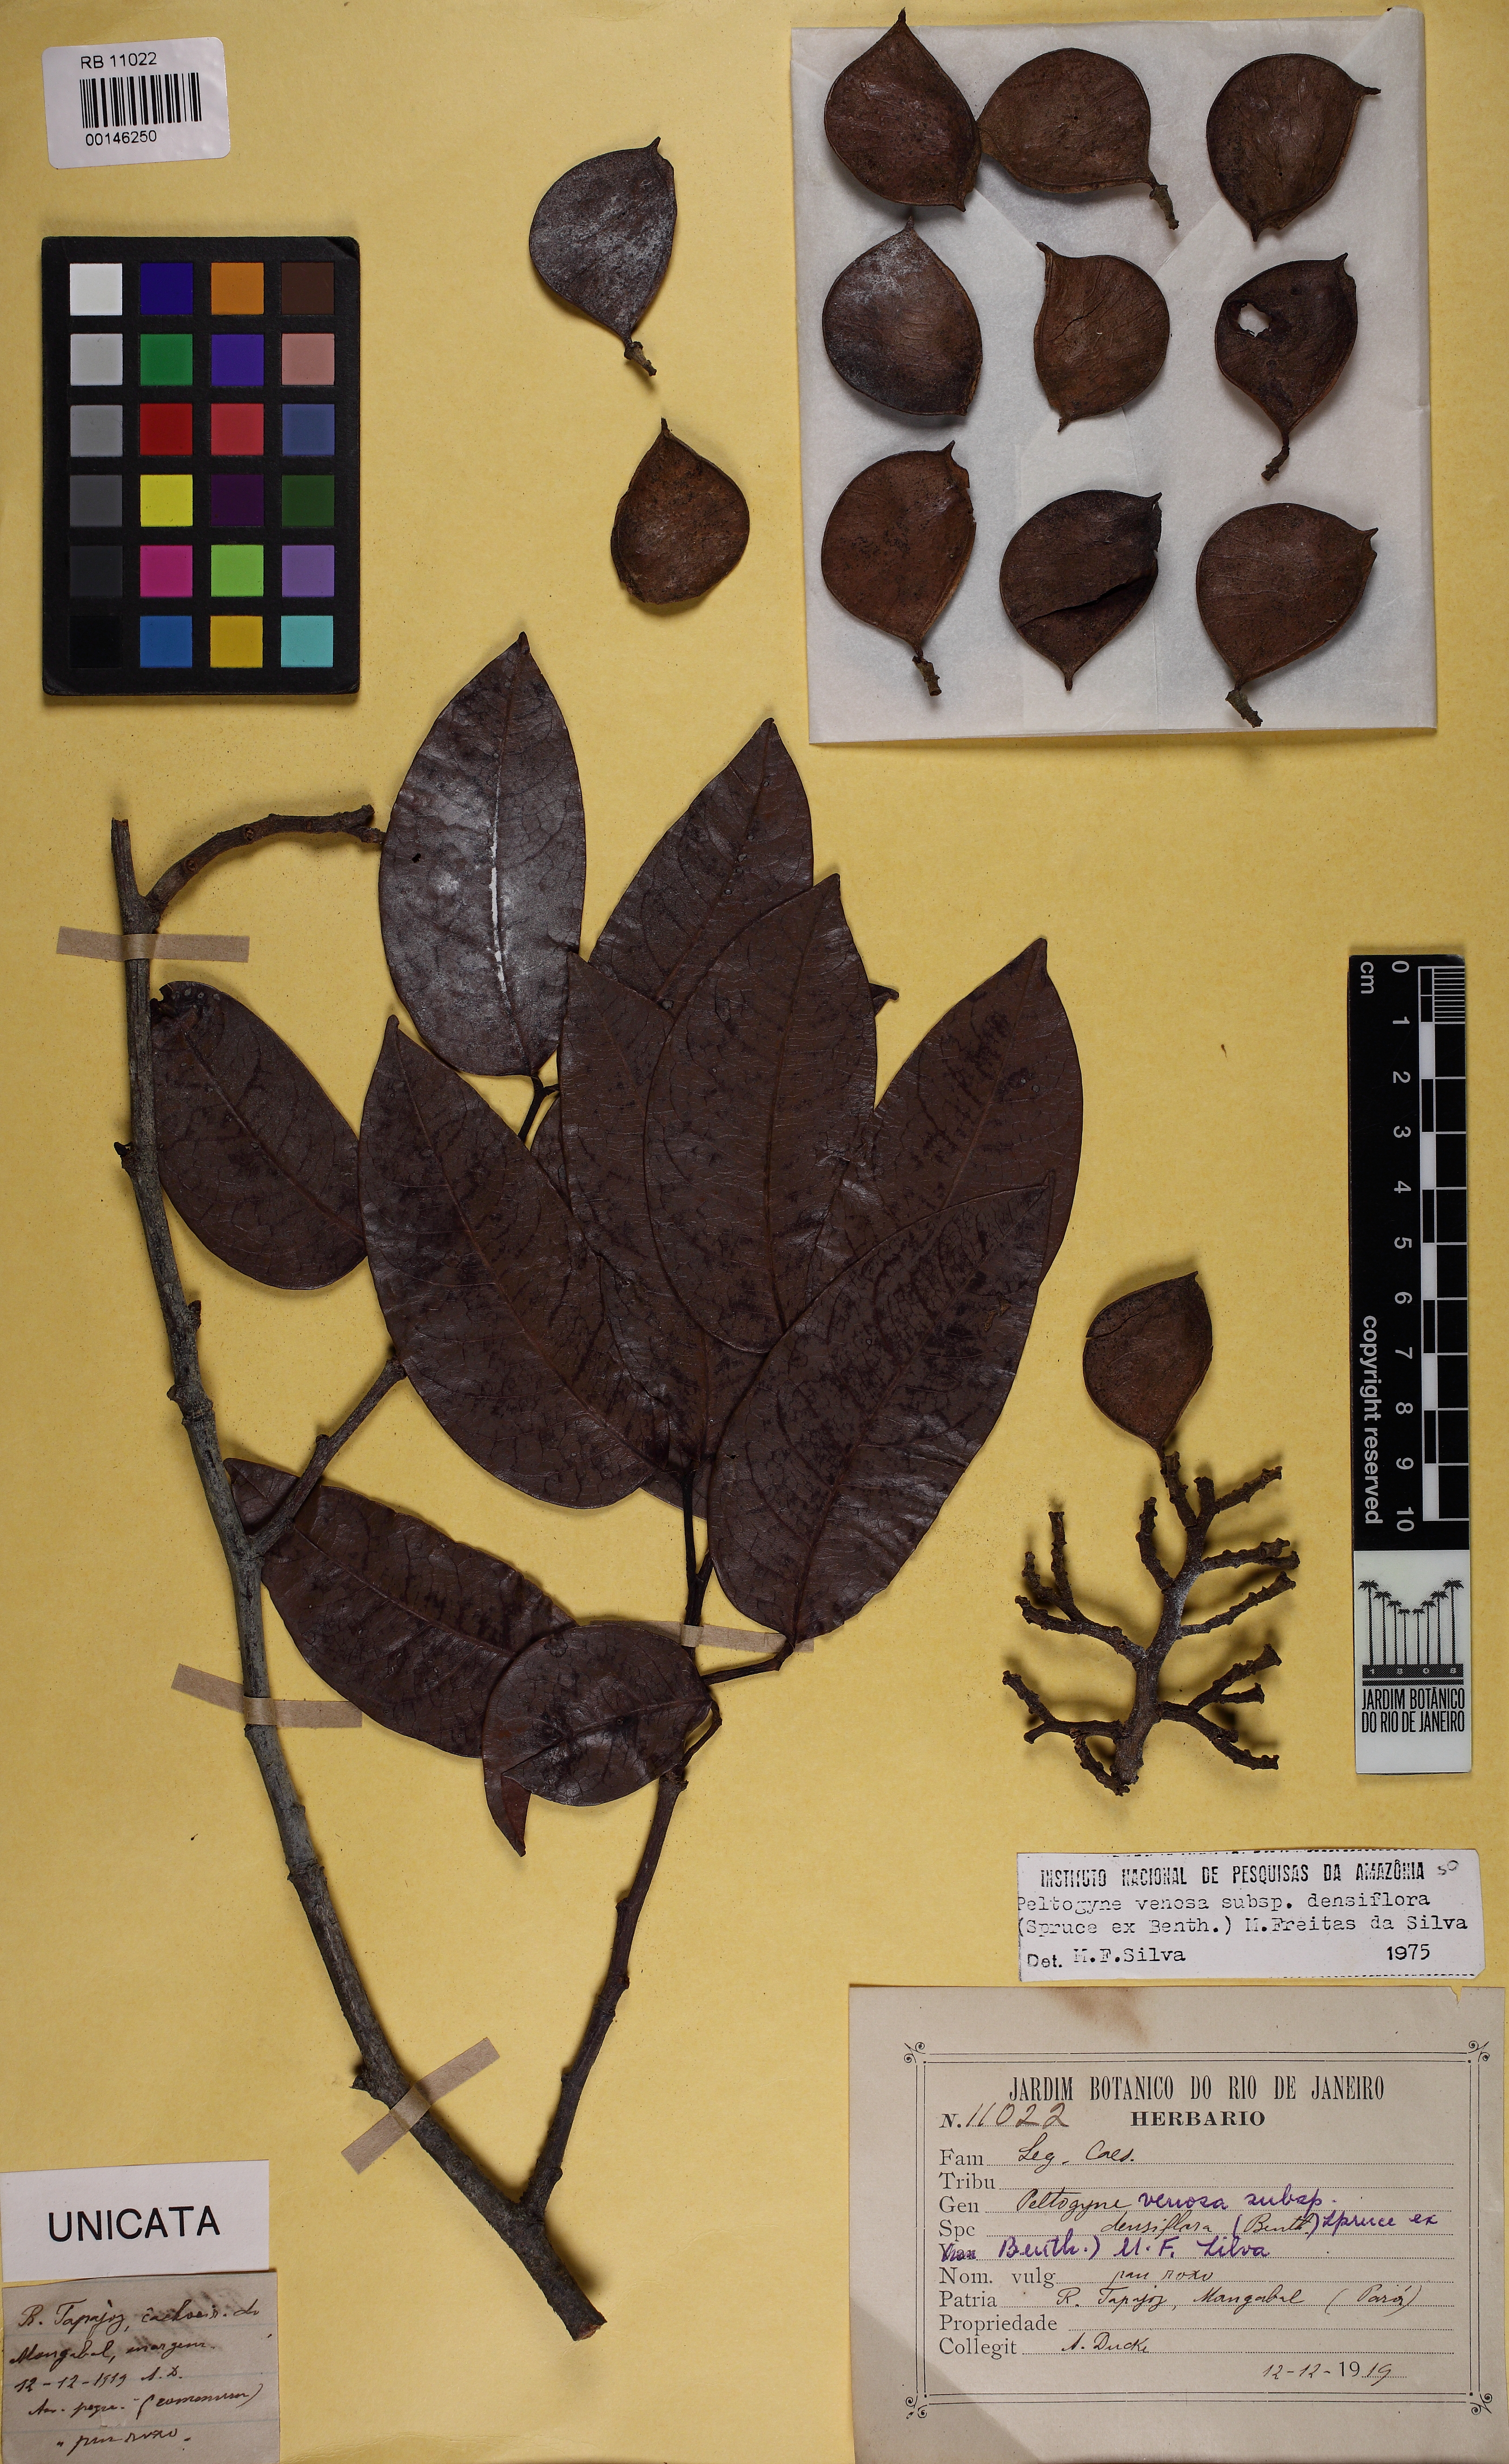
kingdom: Plantae
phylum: Tracheophyta
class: Magnoliopsida
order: Fabales
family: Fabaceae
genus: Peltogyne
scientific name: Peltogyne venosa
